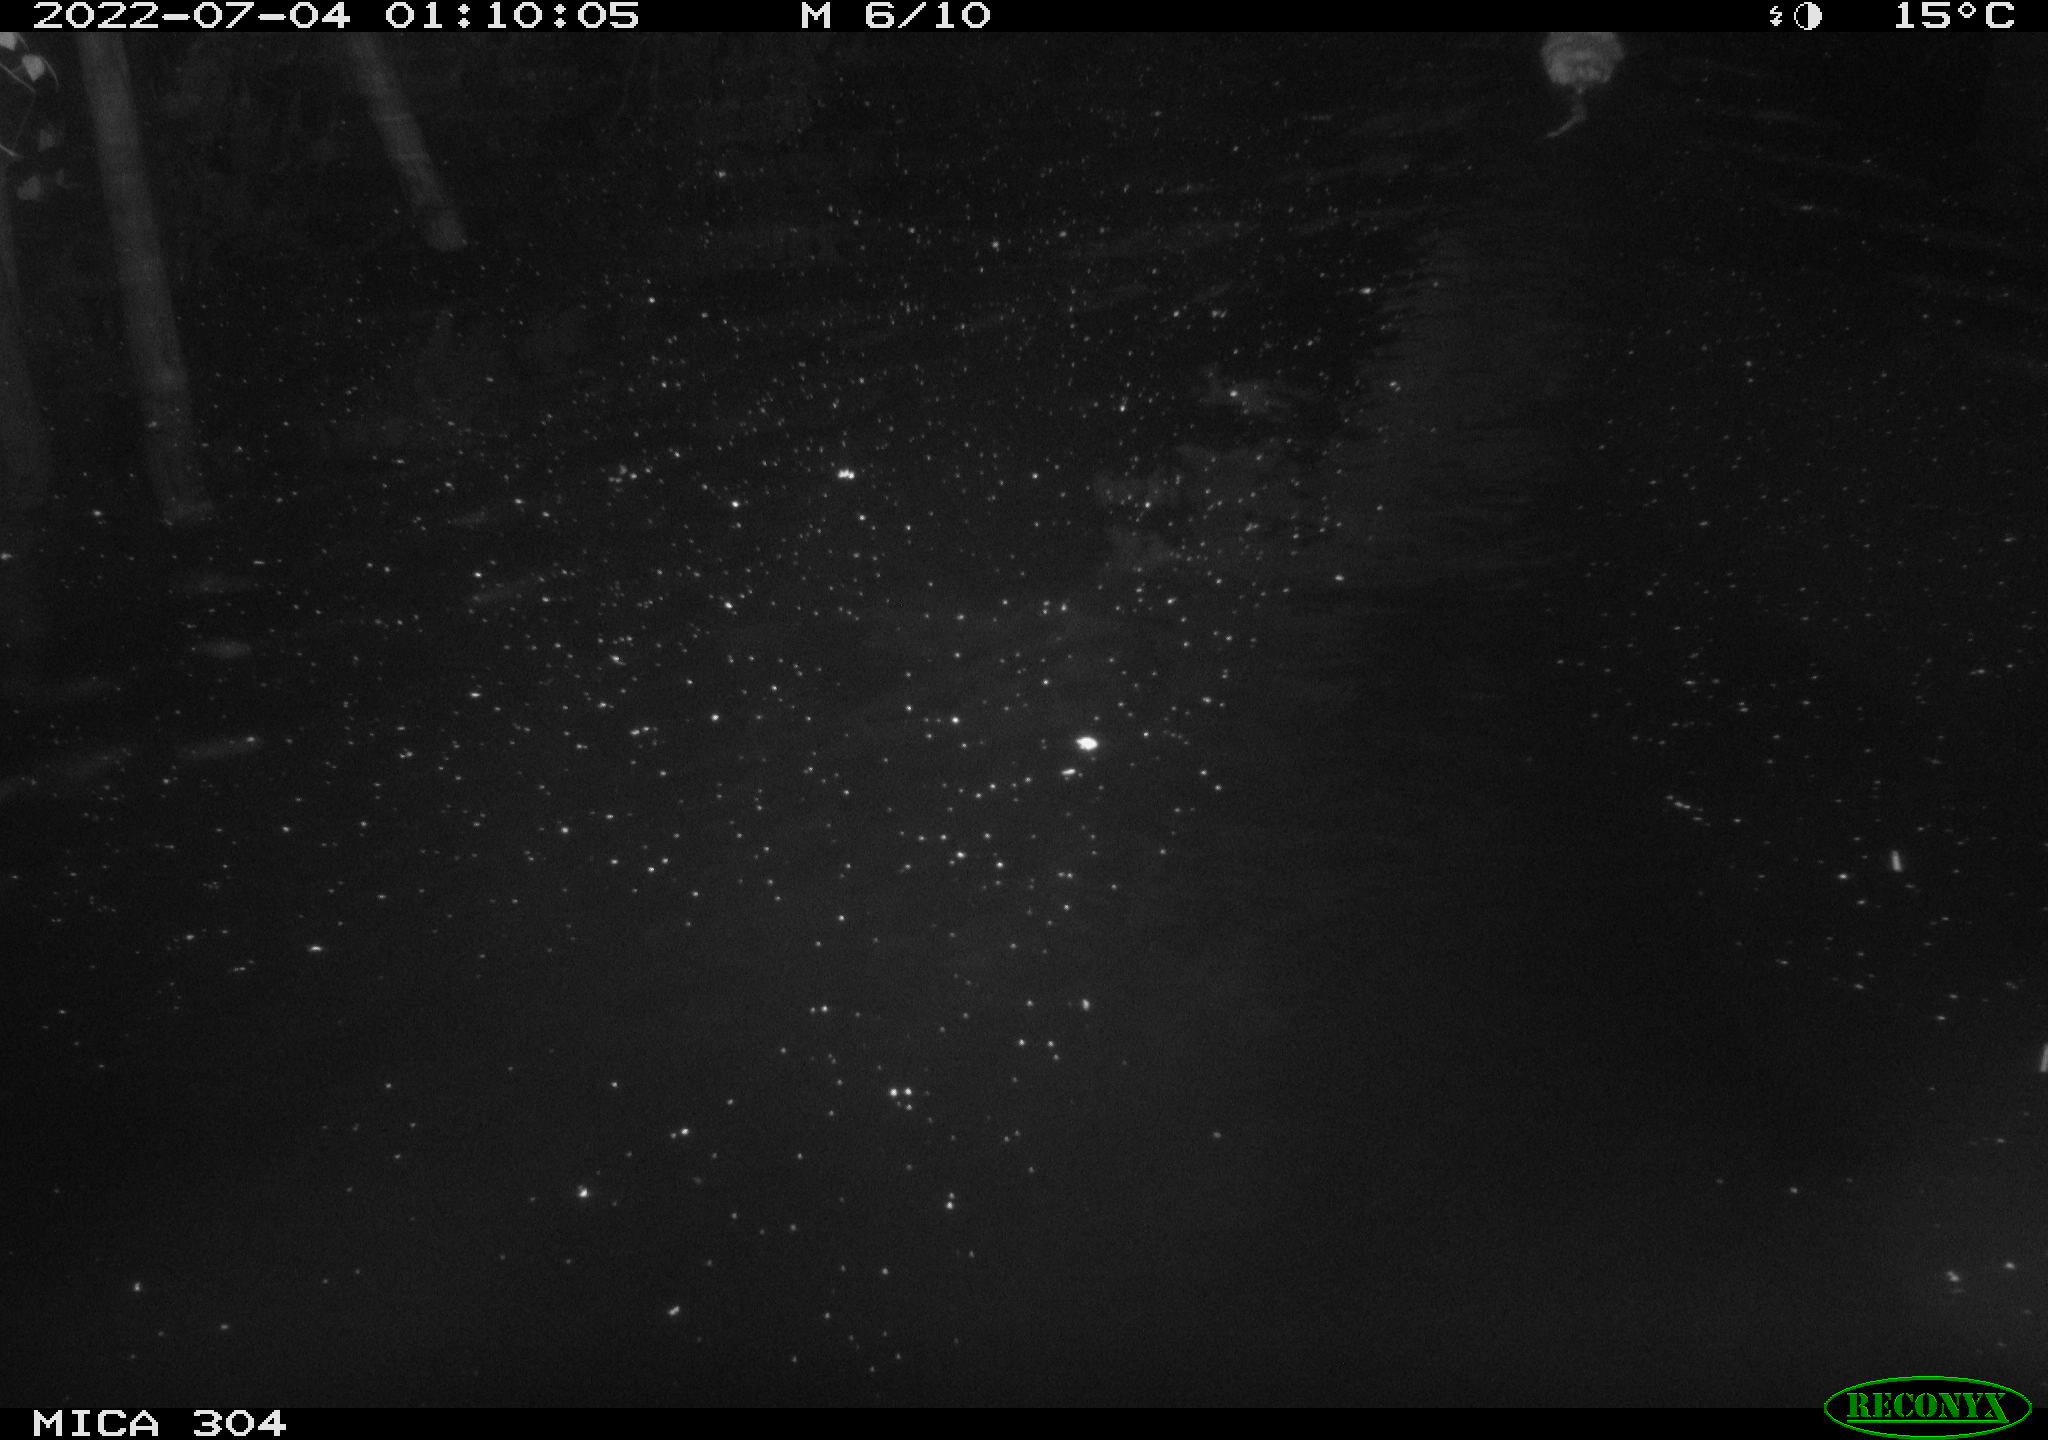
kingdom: Animalia
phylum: Chordata
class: Mammalia
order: Rodentia
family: Cricetidae
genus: Ondatra
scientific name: Ondatra zibethicus
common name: Muskrat
